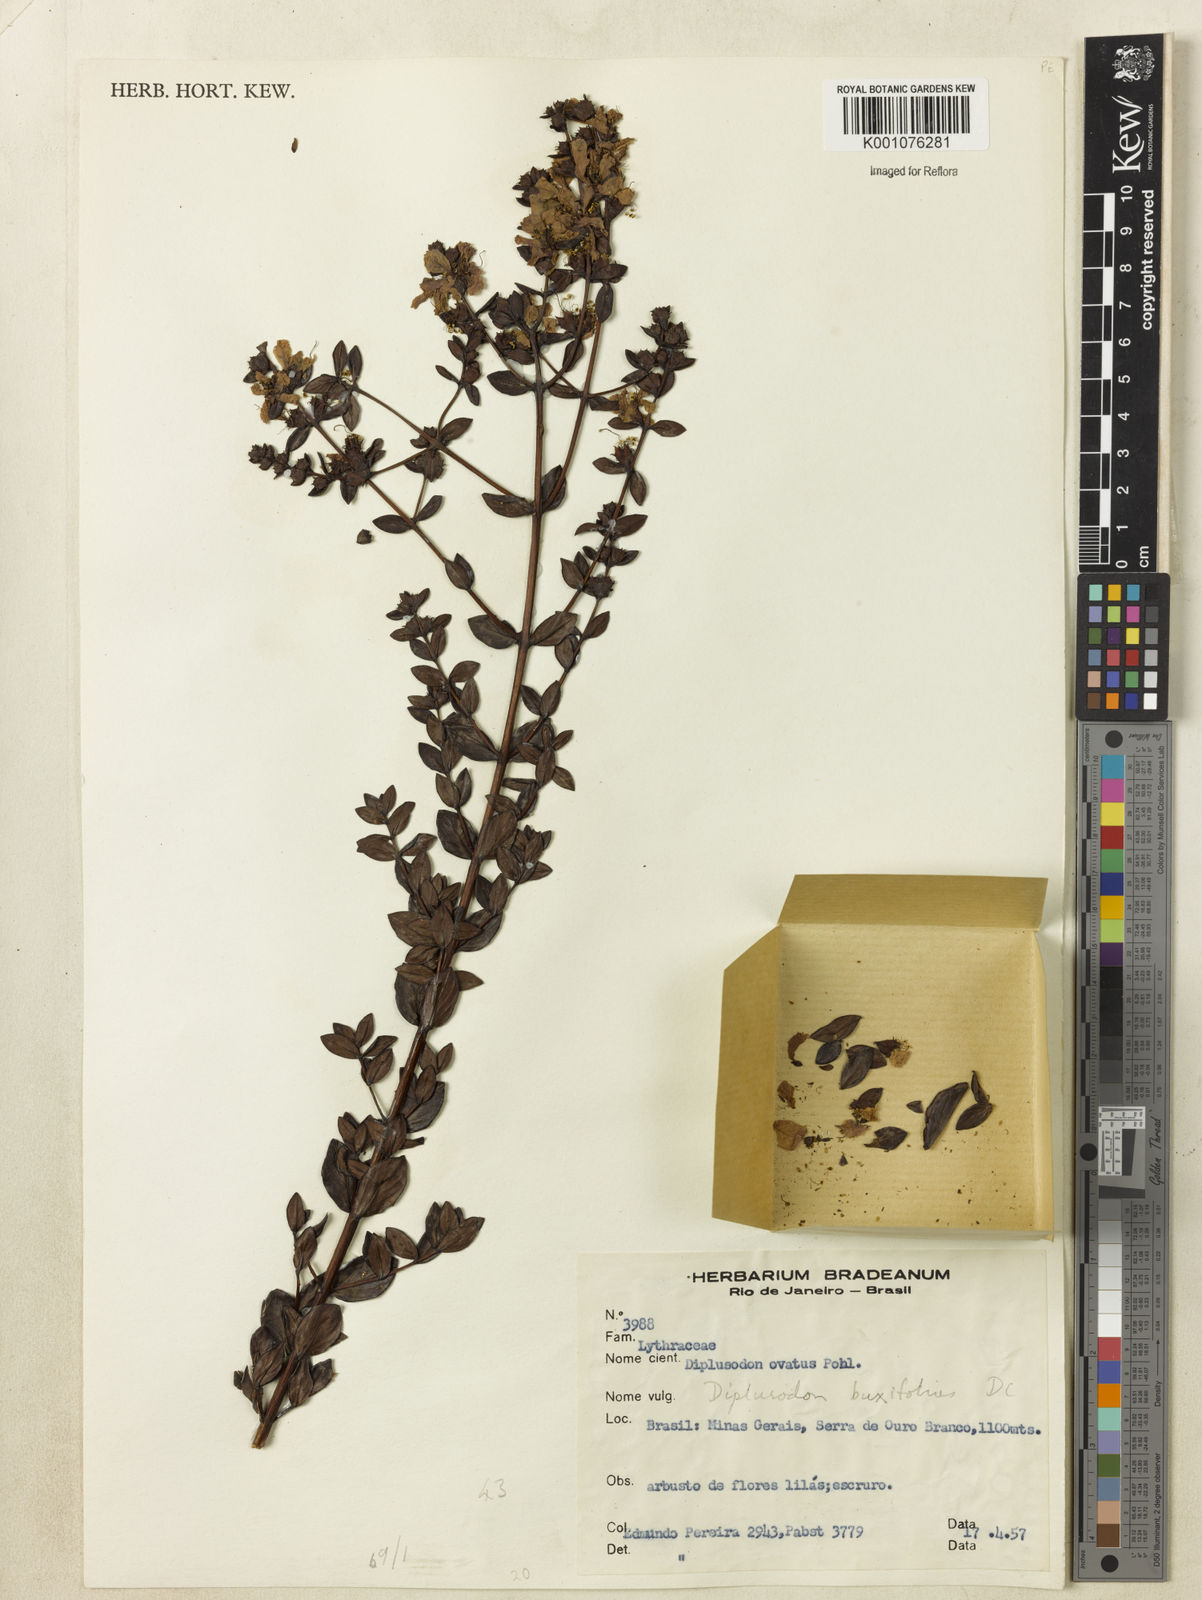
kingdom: Plantae
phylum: Tracheophyta
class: Magnoliopsida
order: Myrtales
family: Lythraceae
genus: Diplusodon
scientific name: Diplusodon buxifolius
